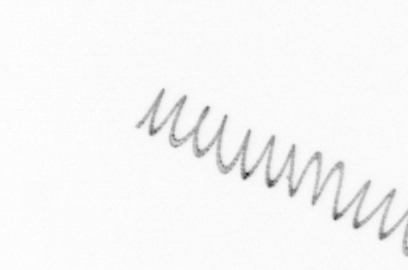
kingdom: Chromista
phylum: Ochrophyta
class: Bacillariophyceae
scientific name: Bacillariophyceae
